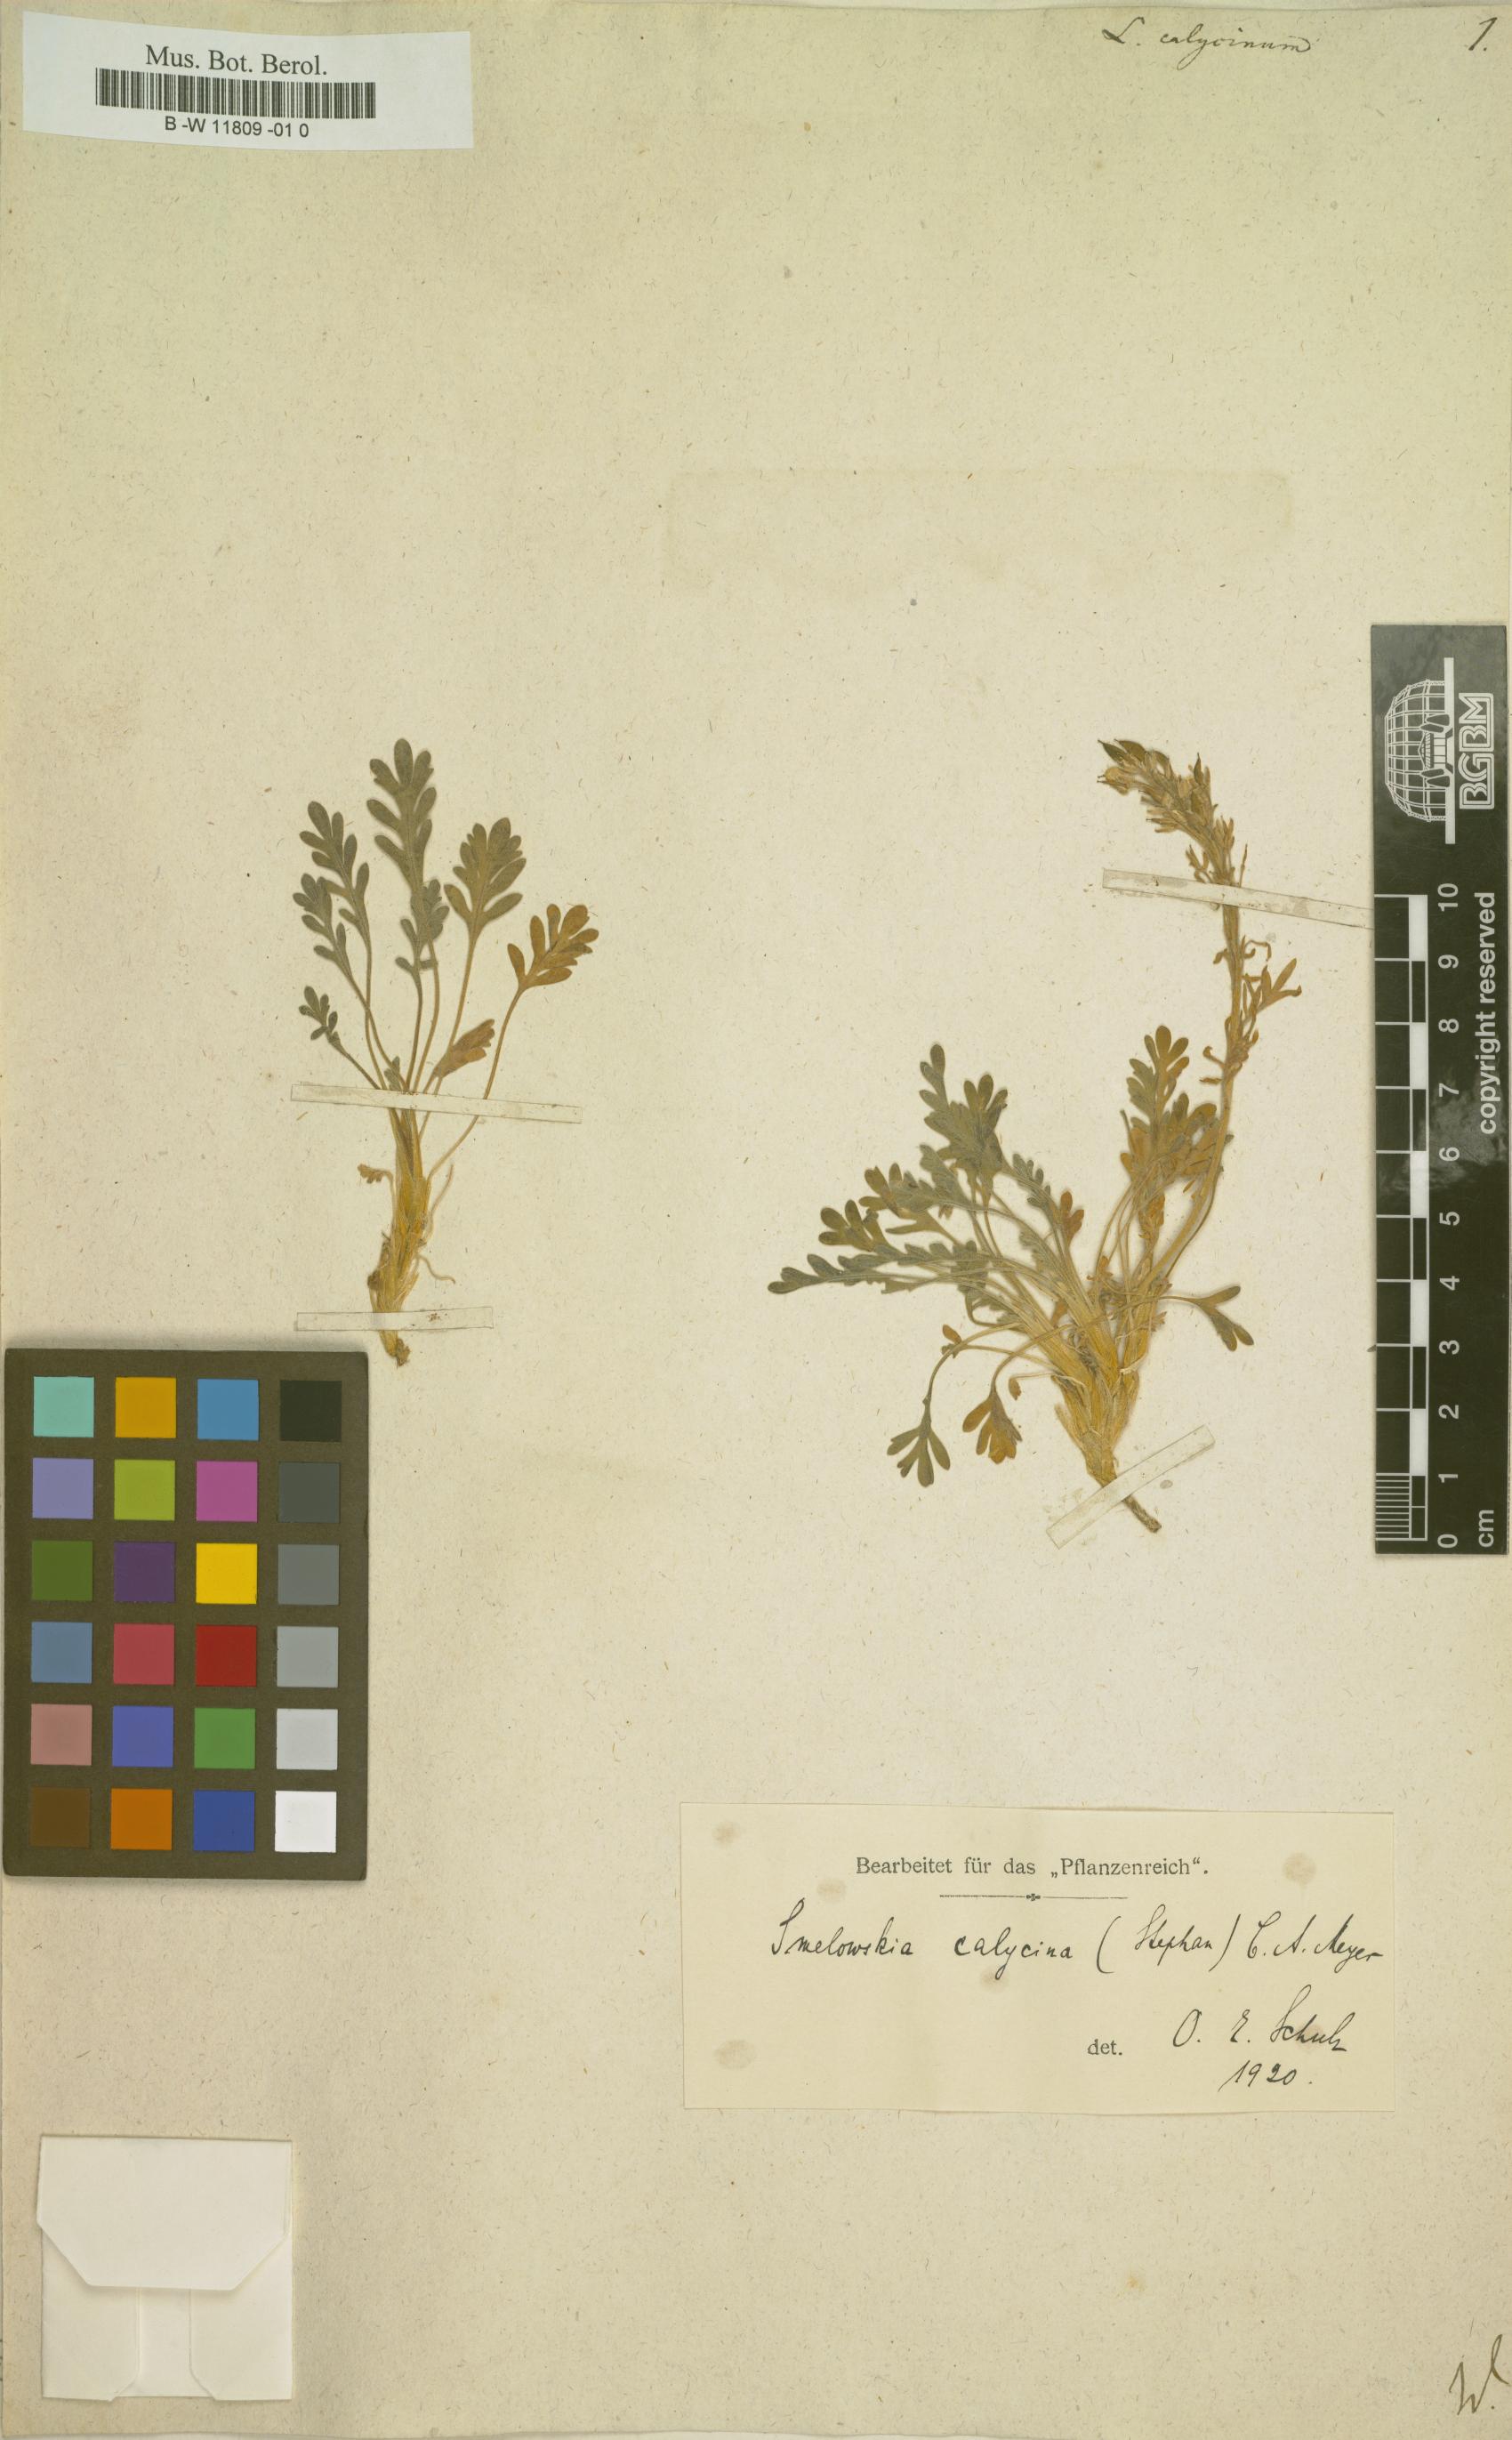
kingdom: Plantae
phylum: Tracheophyta
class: Magnoliopsida
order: Brassicales
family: Brassicaceae
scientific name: Brassicaceae
